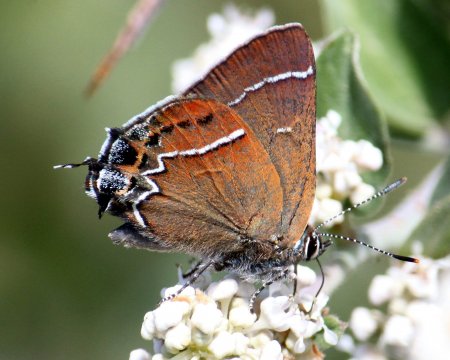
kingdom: Animalia
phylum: Arthropoda
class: Insecta
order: Lepidoptera
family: Lycaenidae
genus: Mitoura
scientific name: Mitoura spinetorum
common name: Thicket Hairstreak
